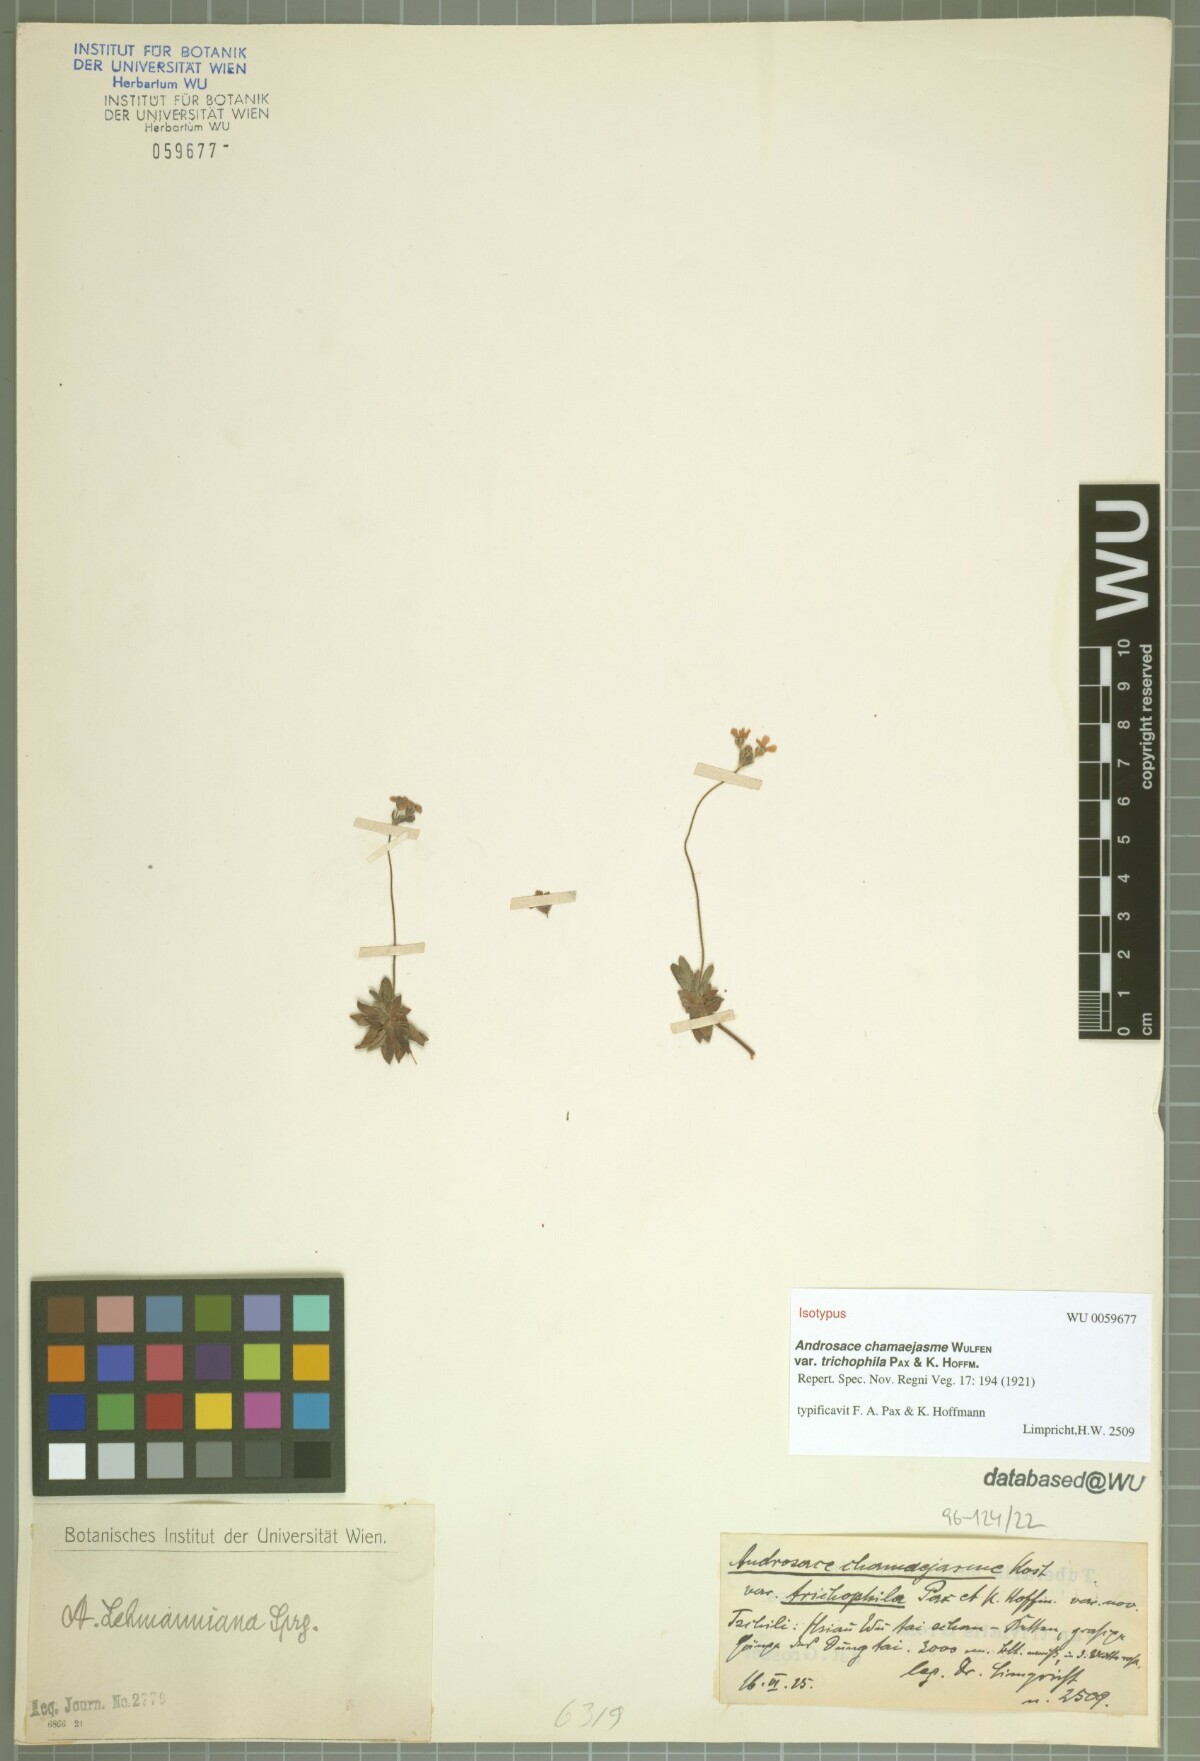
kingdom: Plantae
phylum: Tracheophyta
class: Magnoliopsida
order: Ericales
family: Primulaceae
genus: Androsace
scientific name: Androsace chamaejasme
